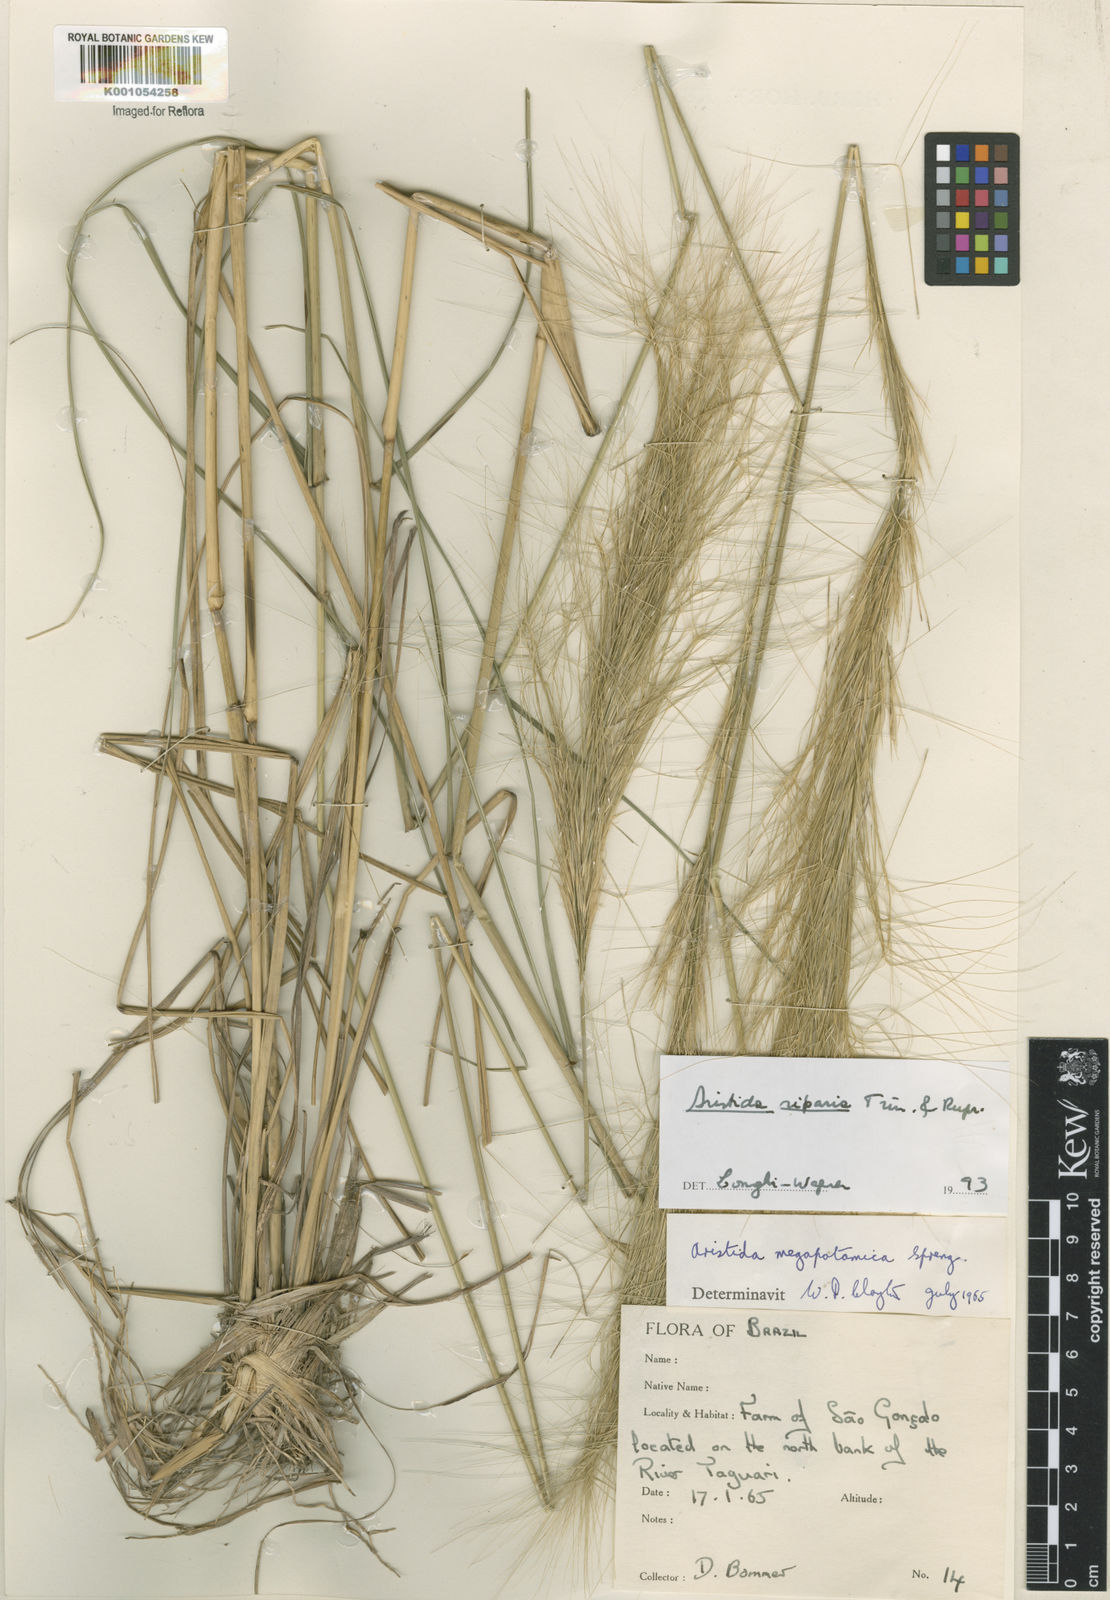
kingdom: Plantae
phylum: Tracheophyta
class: Liliopsida
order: Poales
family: Poaceae
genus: Aristida
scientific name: Aristida riparia
